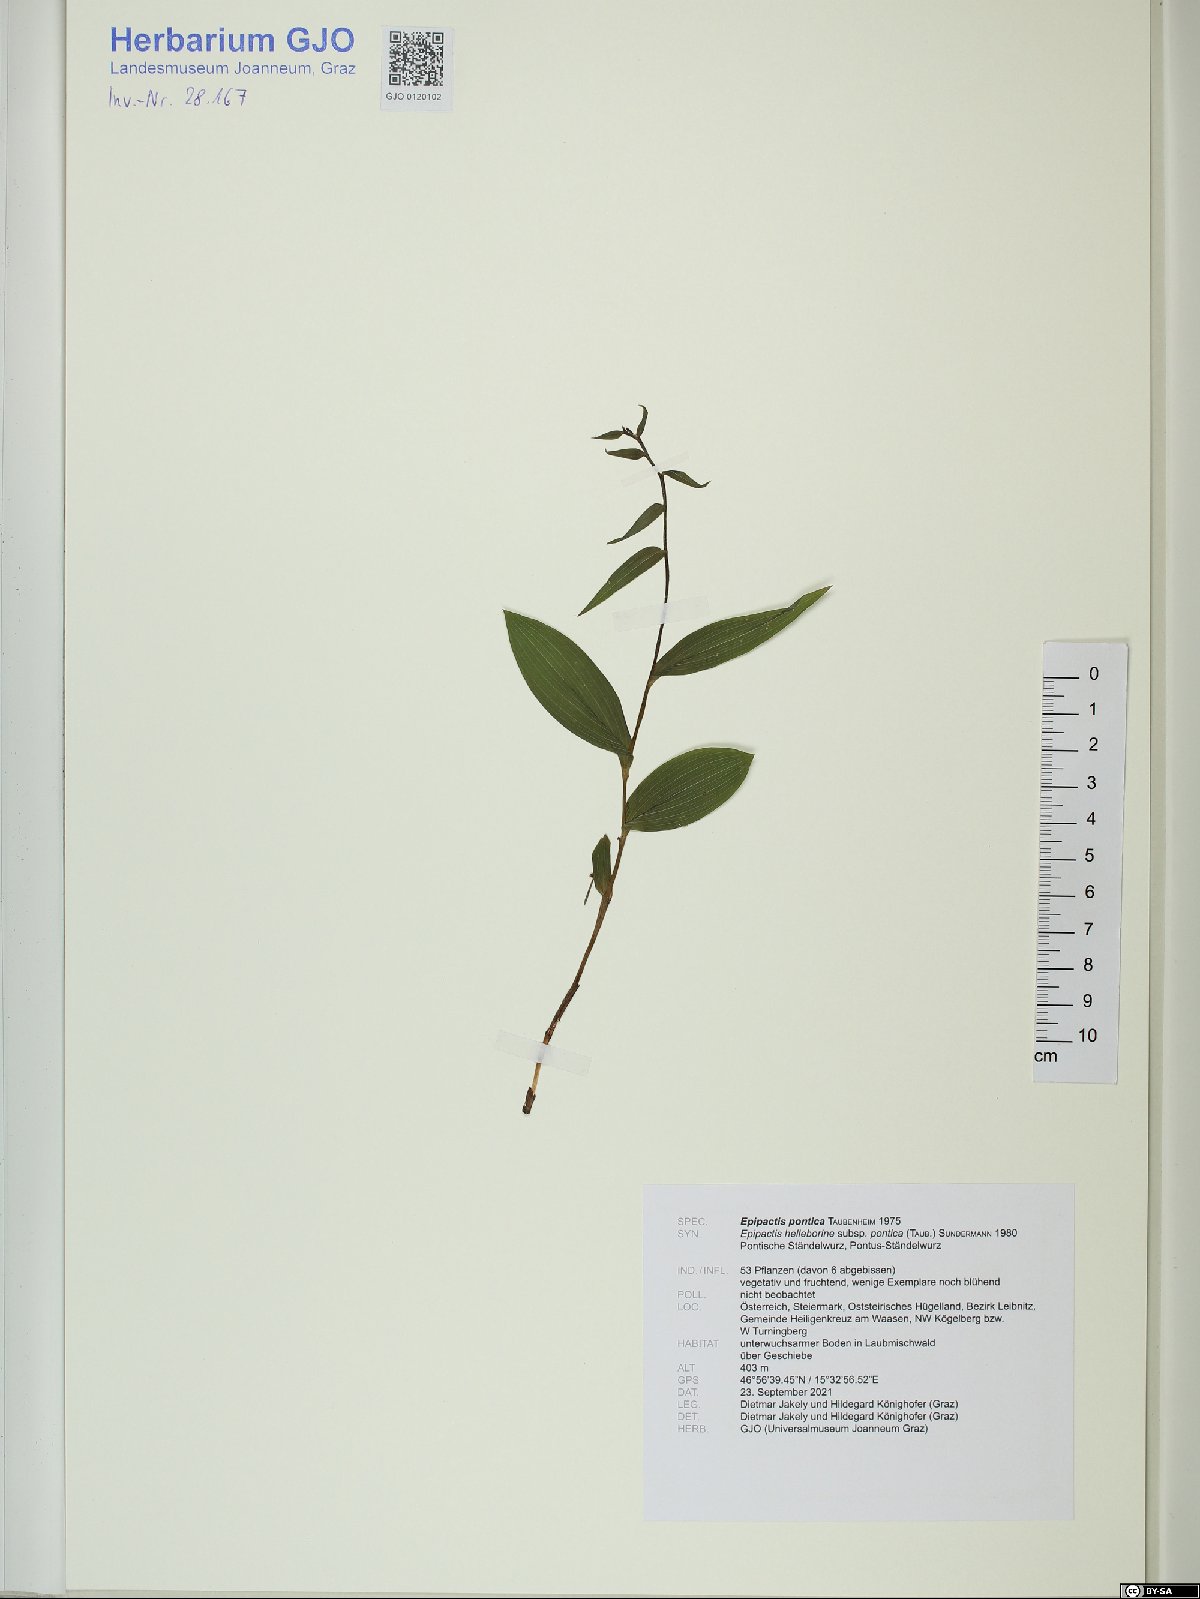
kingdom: Plantae
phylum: Tracheophyta
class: Liliopsida
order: Asparagales
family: Orchidaceae
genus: Epipactis
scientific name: Epipactis pontica
